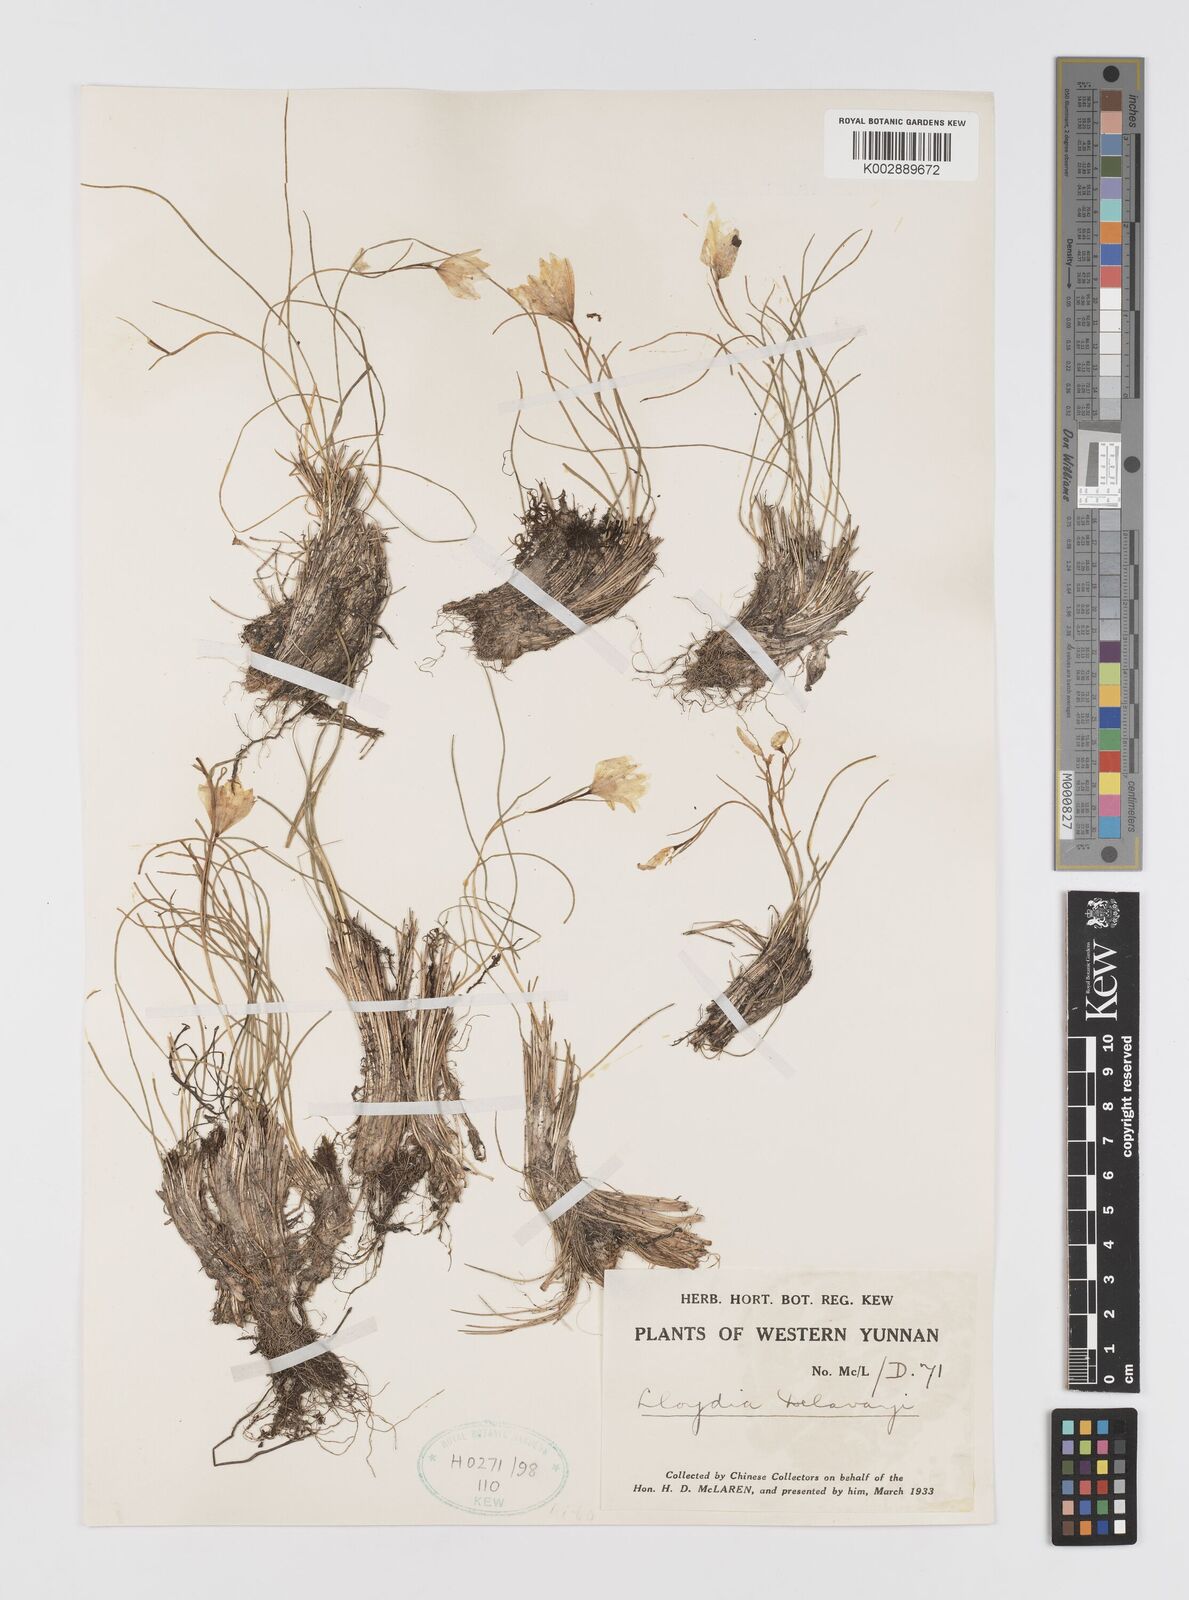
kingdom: Plantae
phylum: Tracheophyta
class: Liliopsida
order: Liliales
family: Liliaceae
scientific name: Liliaceae
